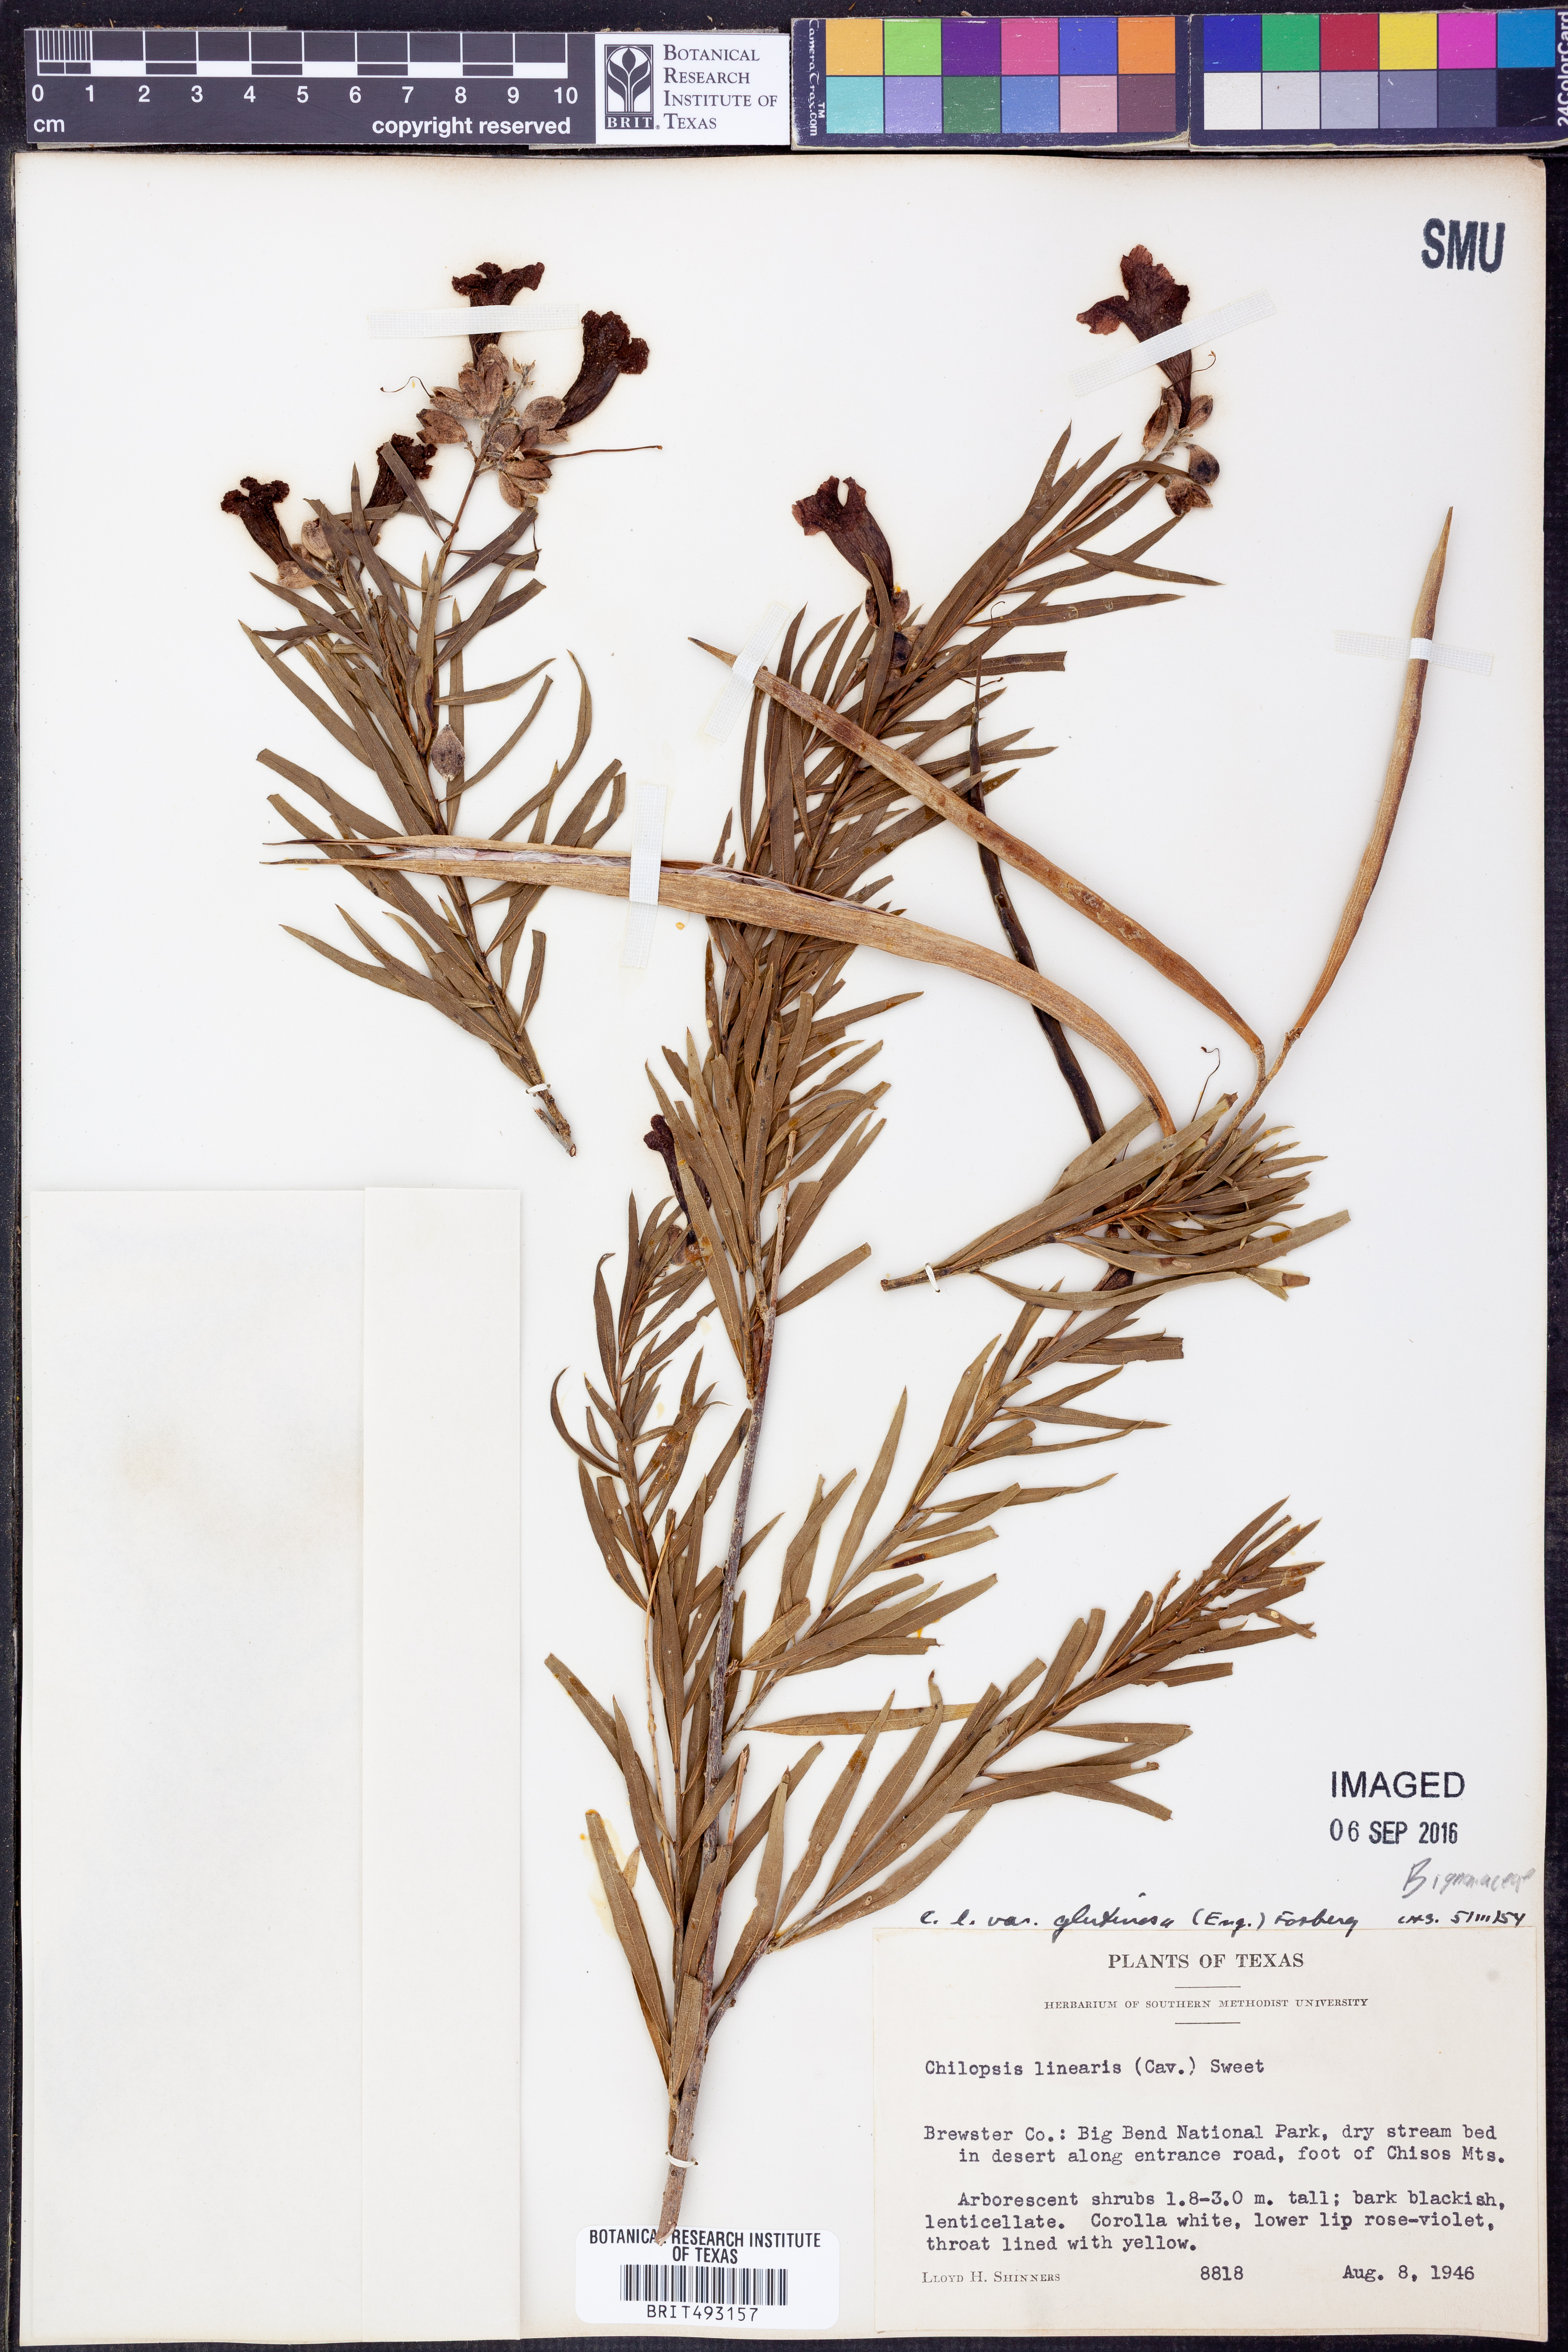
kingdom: Plantae
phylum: Tracheophyta
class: Magnoliopsida
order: Lamiales
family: Bignoniaceae
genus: Chilopsis
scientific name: Chilopsis linearis
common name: Desert-willow
